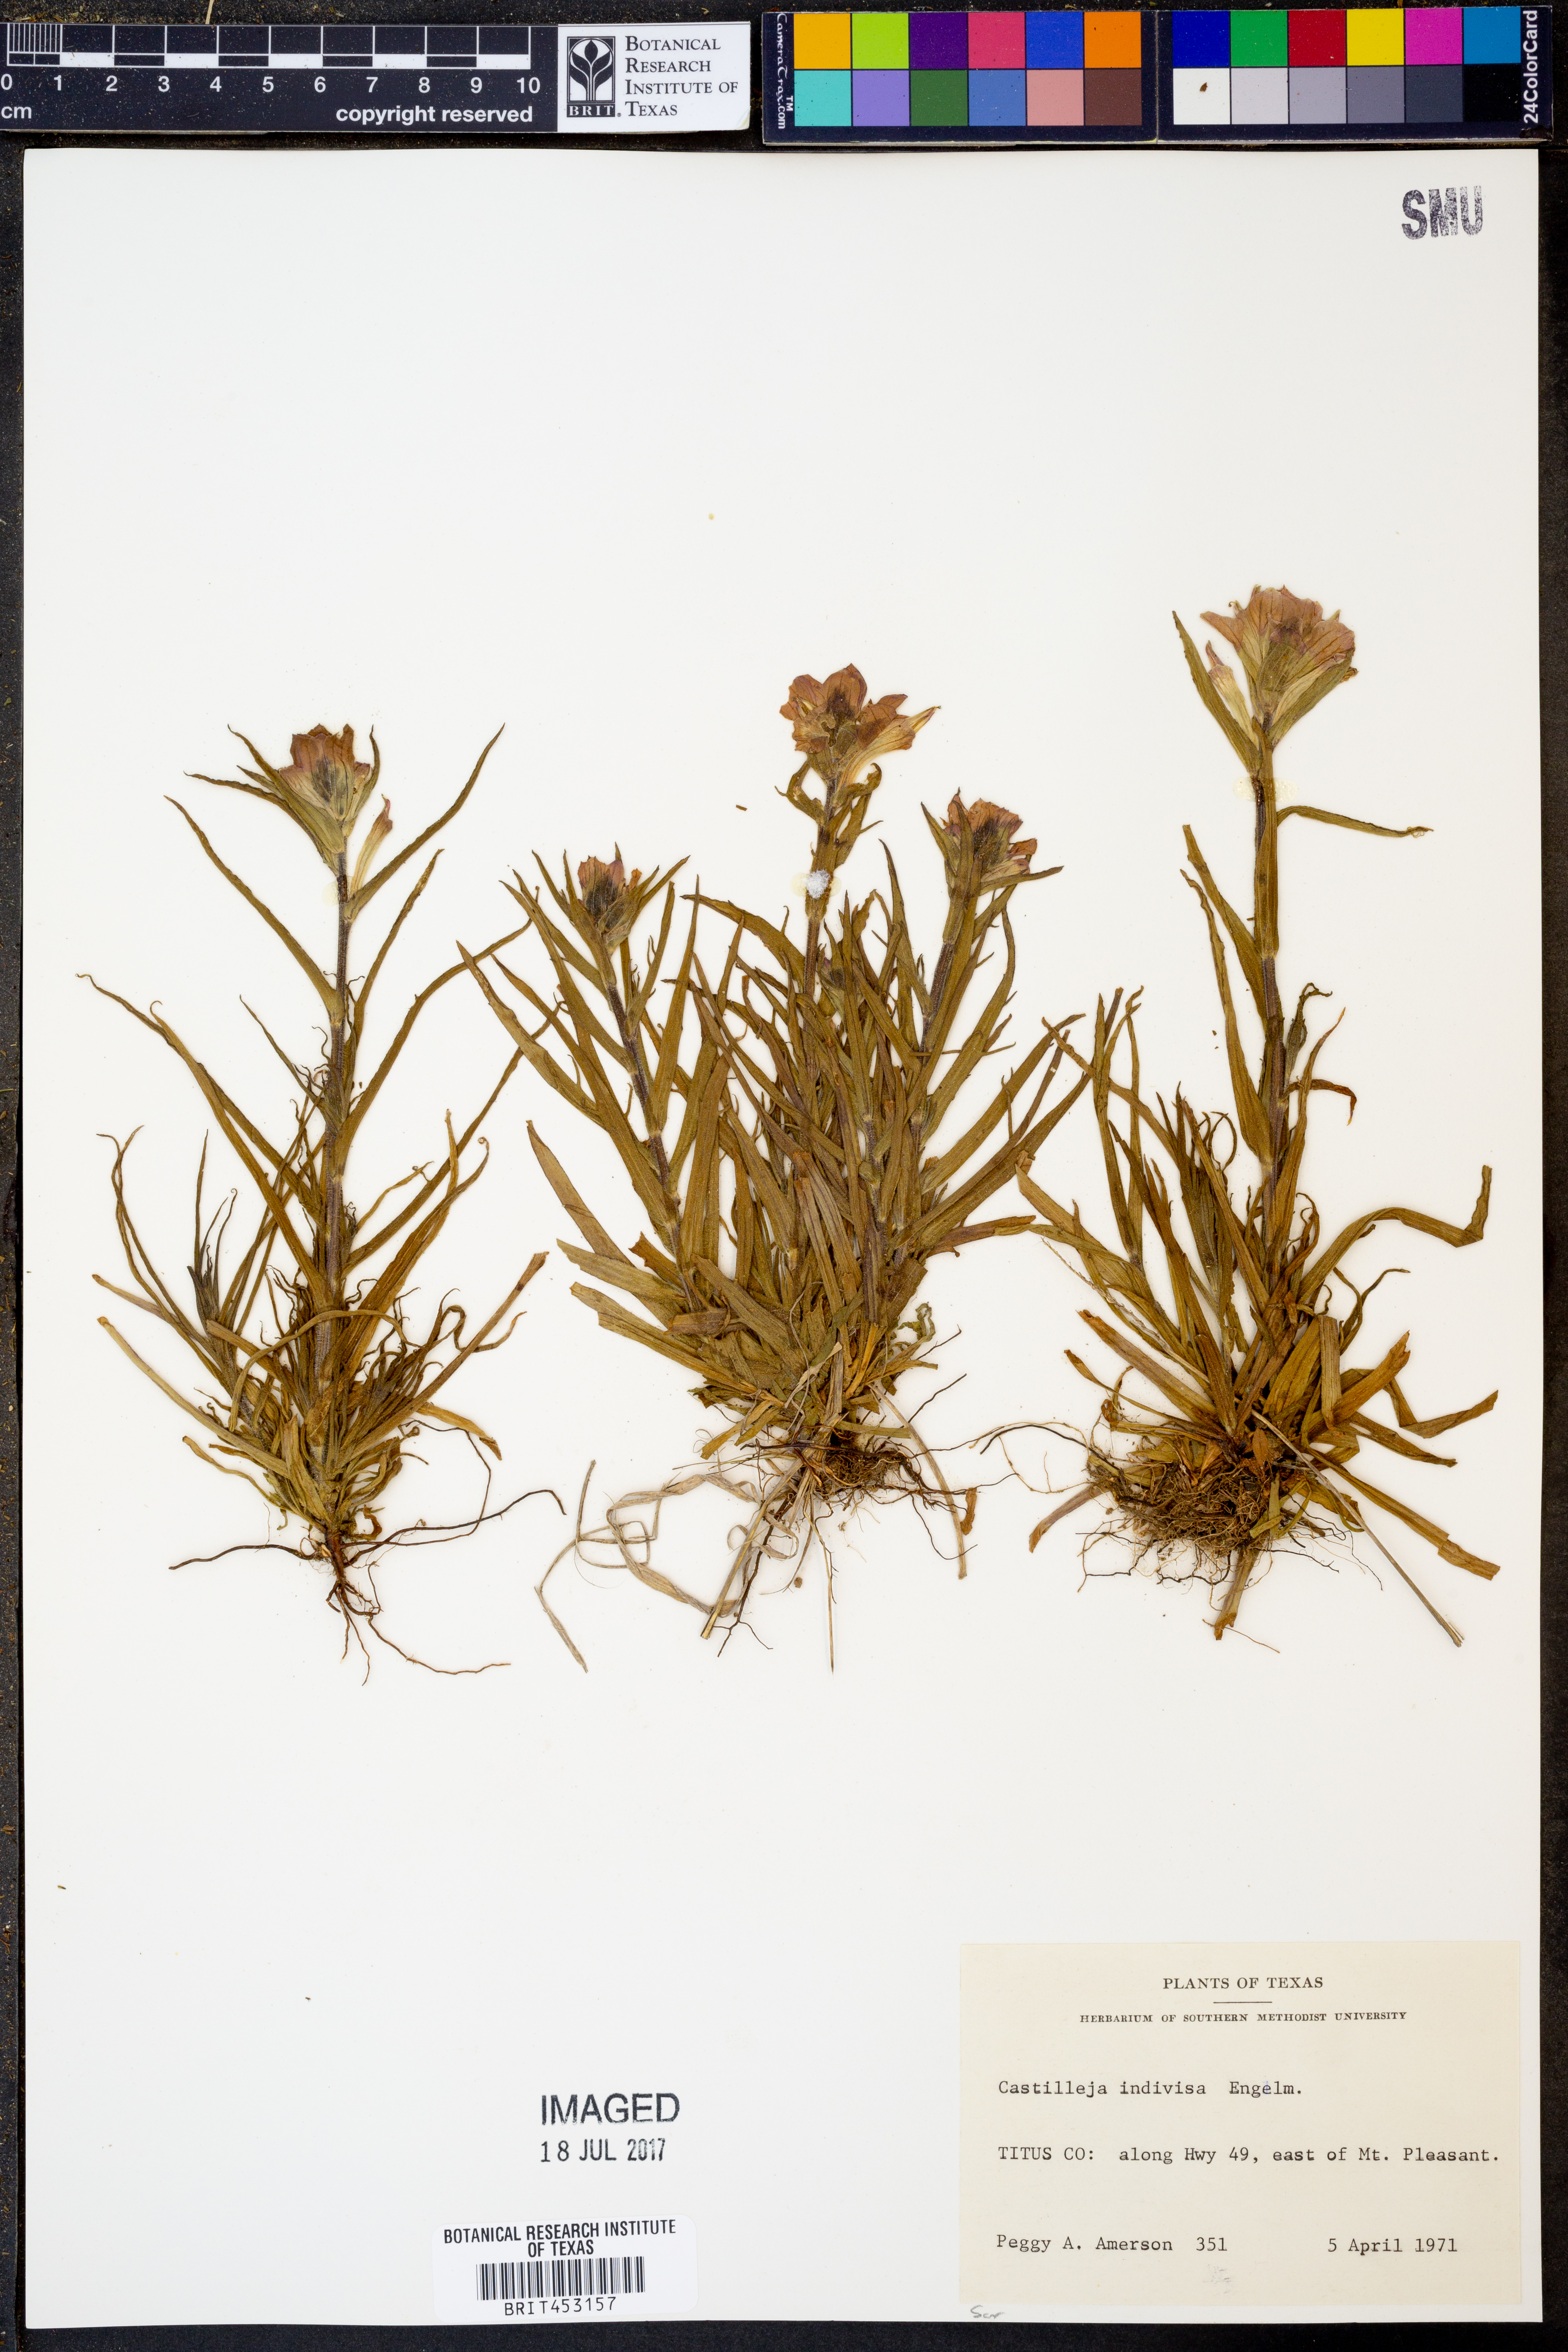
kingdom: Plantae
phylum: Tracheophyta
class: Magnoliopsida
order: Lamiales
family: Orobanchaceae
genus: Castilleja
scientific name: Castilleja indivisa
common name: Texas paintbrush
